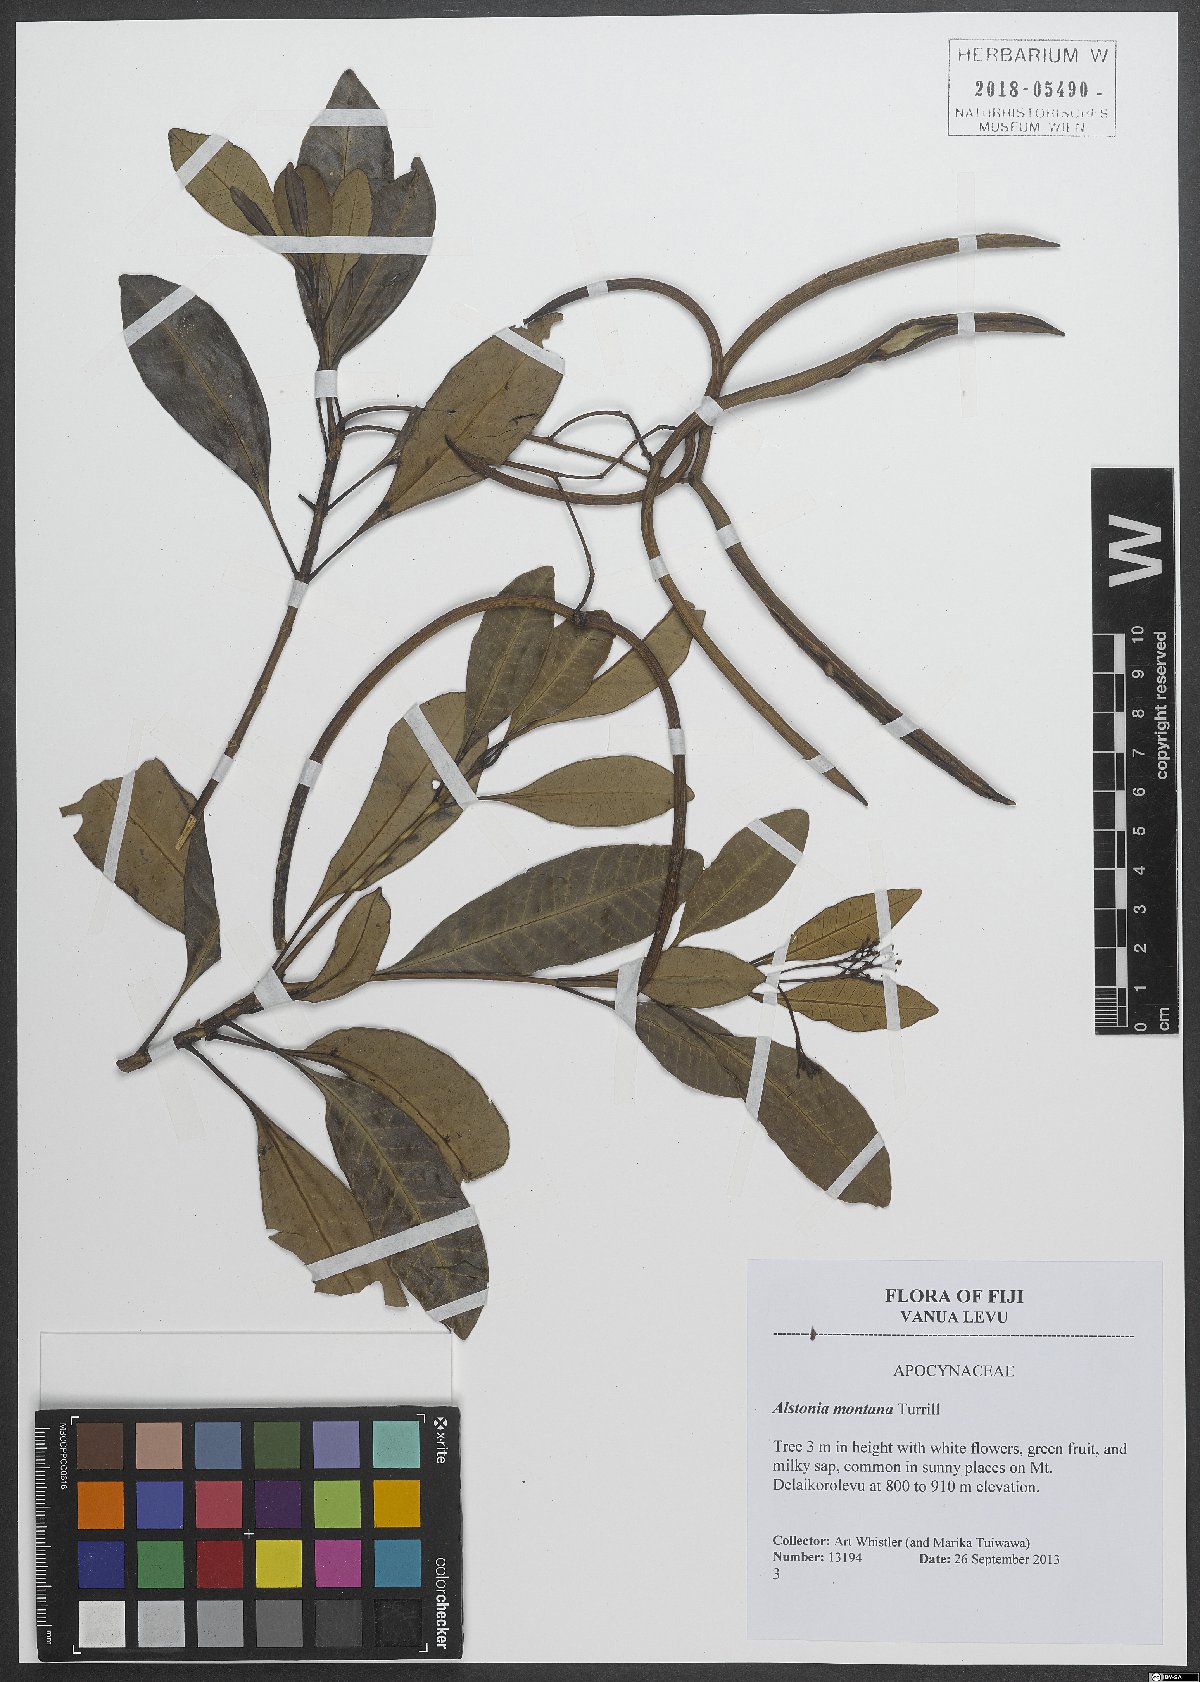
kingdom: Plantae
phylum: Tracheophyta
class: Magnoliopsida
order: Gentianales
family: Apocynaceae
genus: Alstonia
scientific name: Alstonia costata
